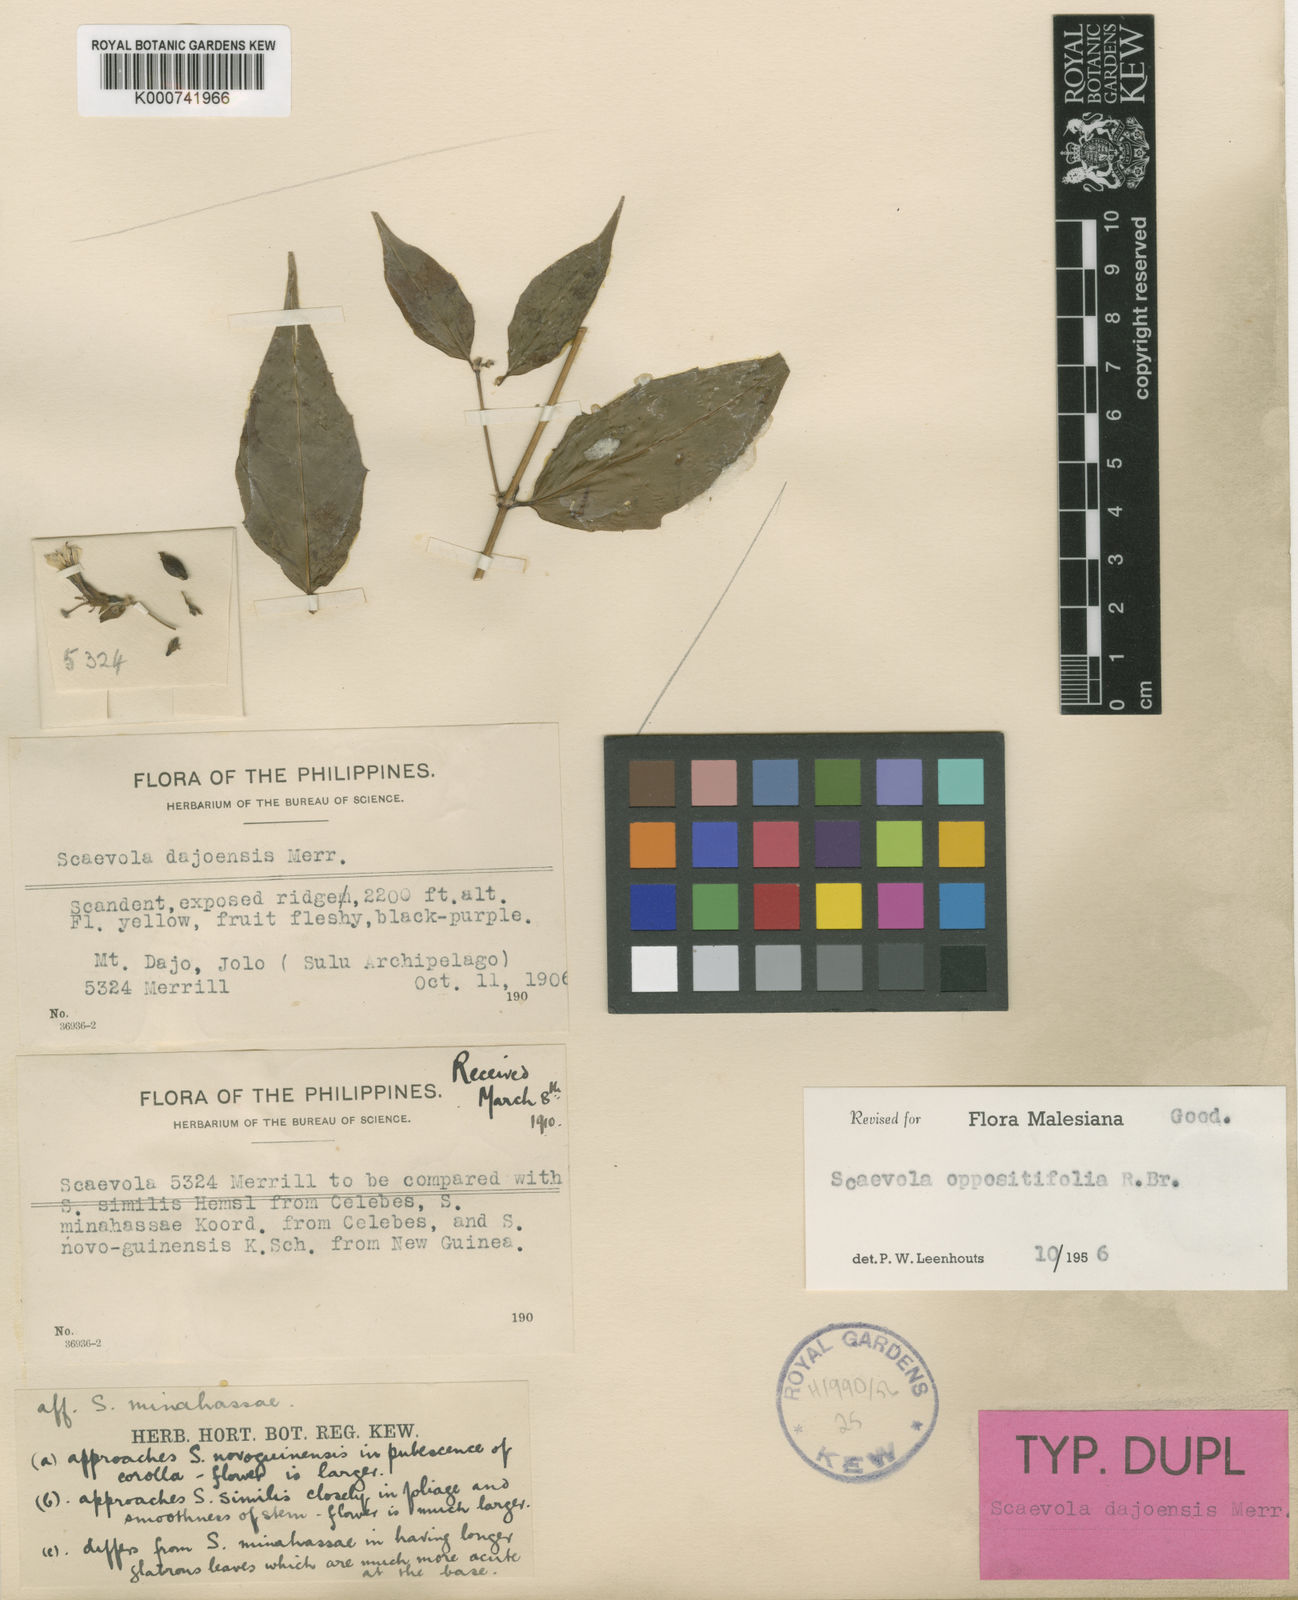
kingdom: Plantae
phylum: Tracheophyta
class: Magnoliopsida
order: Asterales
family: Goodeniaceae
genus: Scaevola
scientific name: Scaevola oppositifolia
